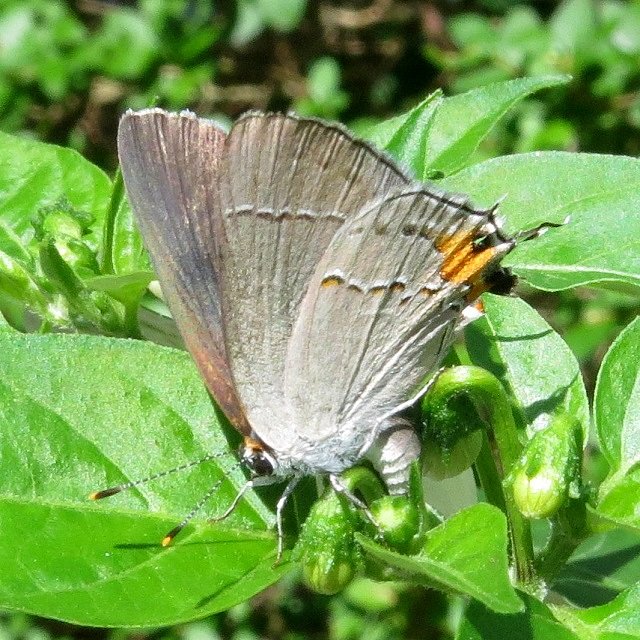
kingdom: Animalia
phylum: Arthropoda
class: Insecta
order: Lepidoptera
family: Lycaenidae
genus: Strymon
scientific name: Strymon melinus
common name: Gray Hairstreak
